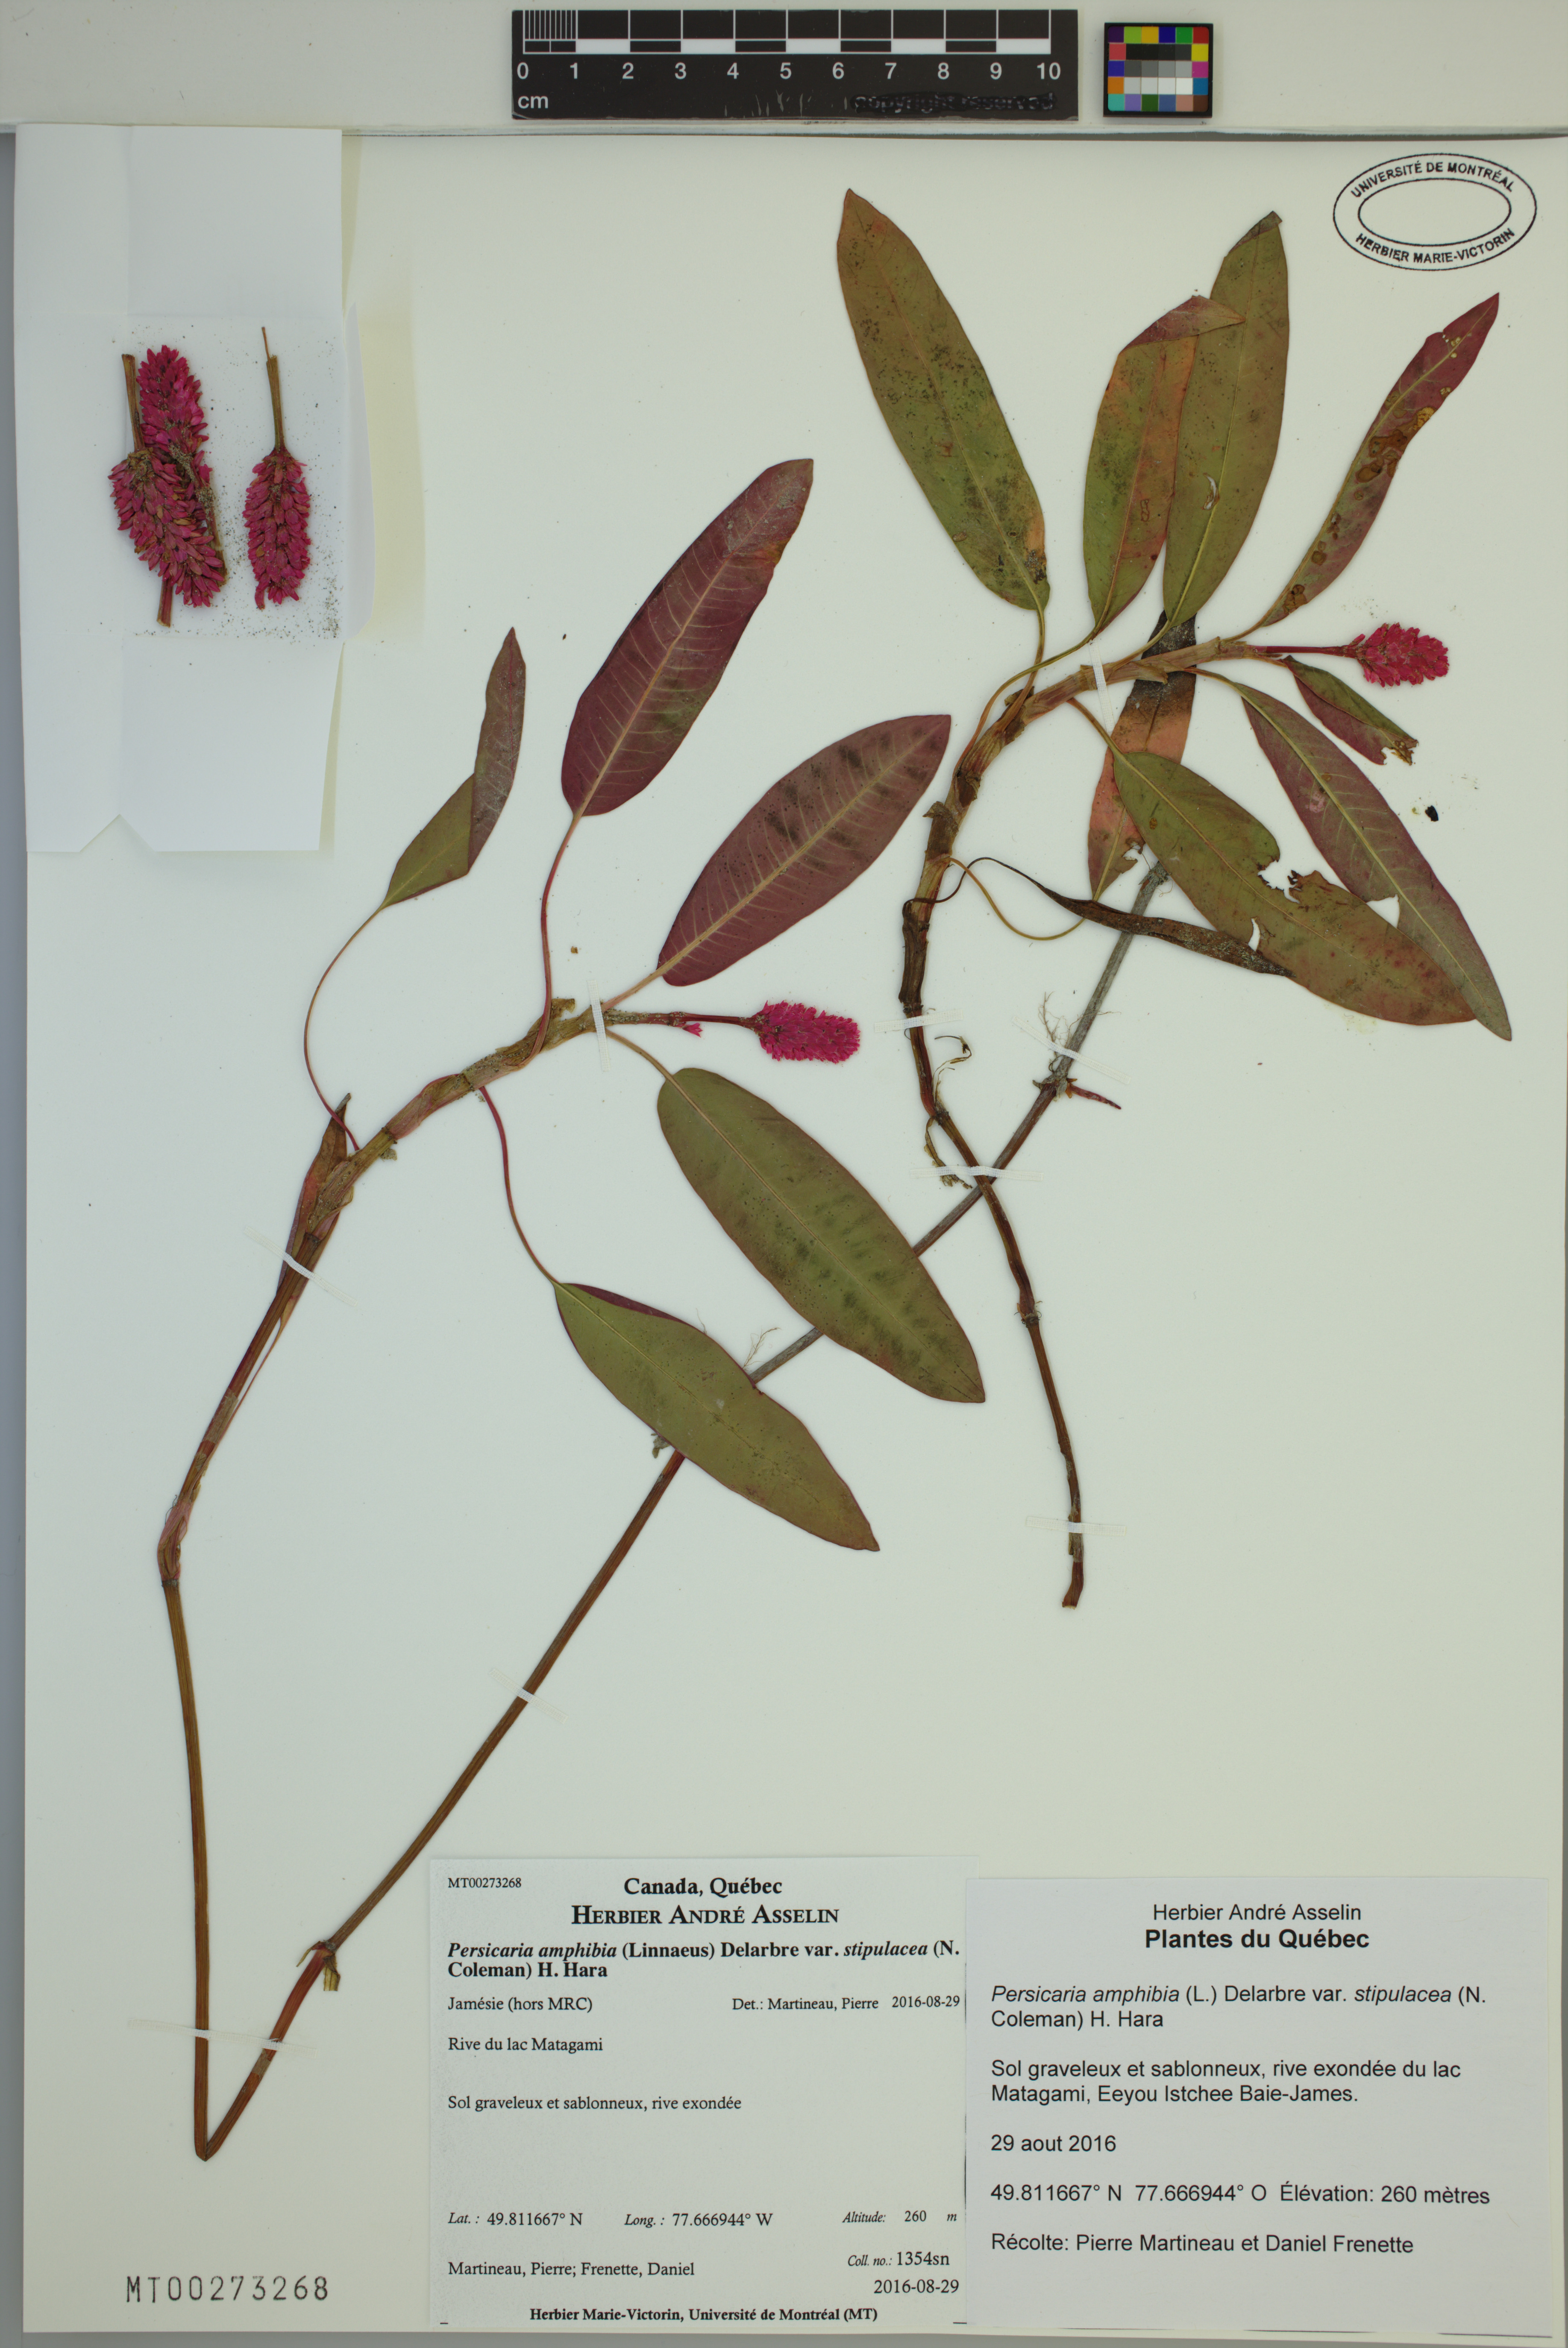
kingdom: Plantae
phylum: Tracheophyta
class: Magnoliopsida
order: Caryophyllales
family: Polygonaceae
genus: Persicaria
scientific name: Persicaria amphibia
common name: Amphibious bistort
